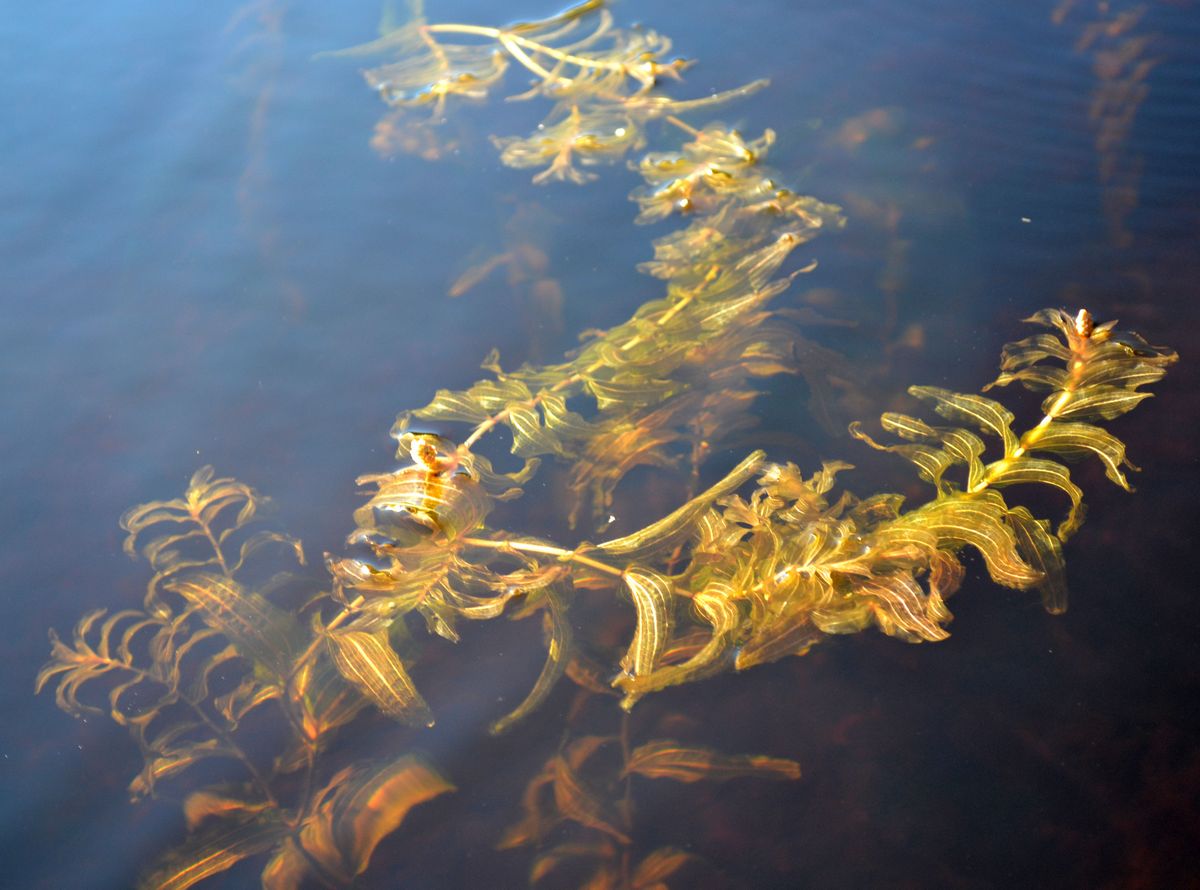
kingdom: Plantae
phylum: Tracheophyta
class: Liliopsida
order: Alismatales
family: Potamogetonaceae
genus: Potamogeton
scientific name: Potamogeton perfoliatus
